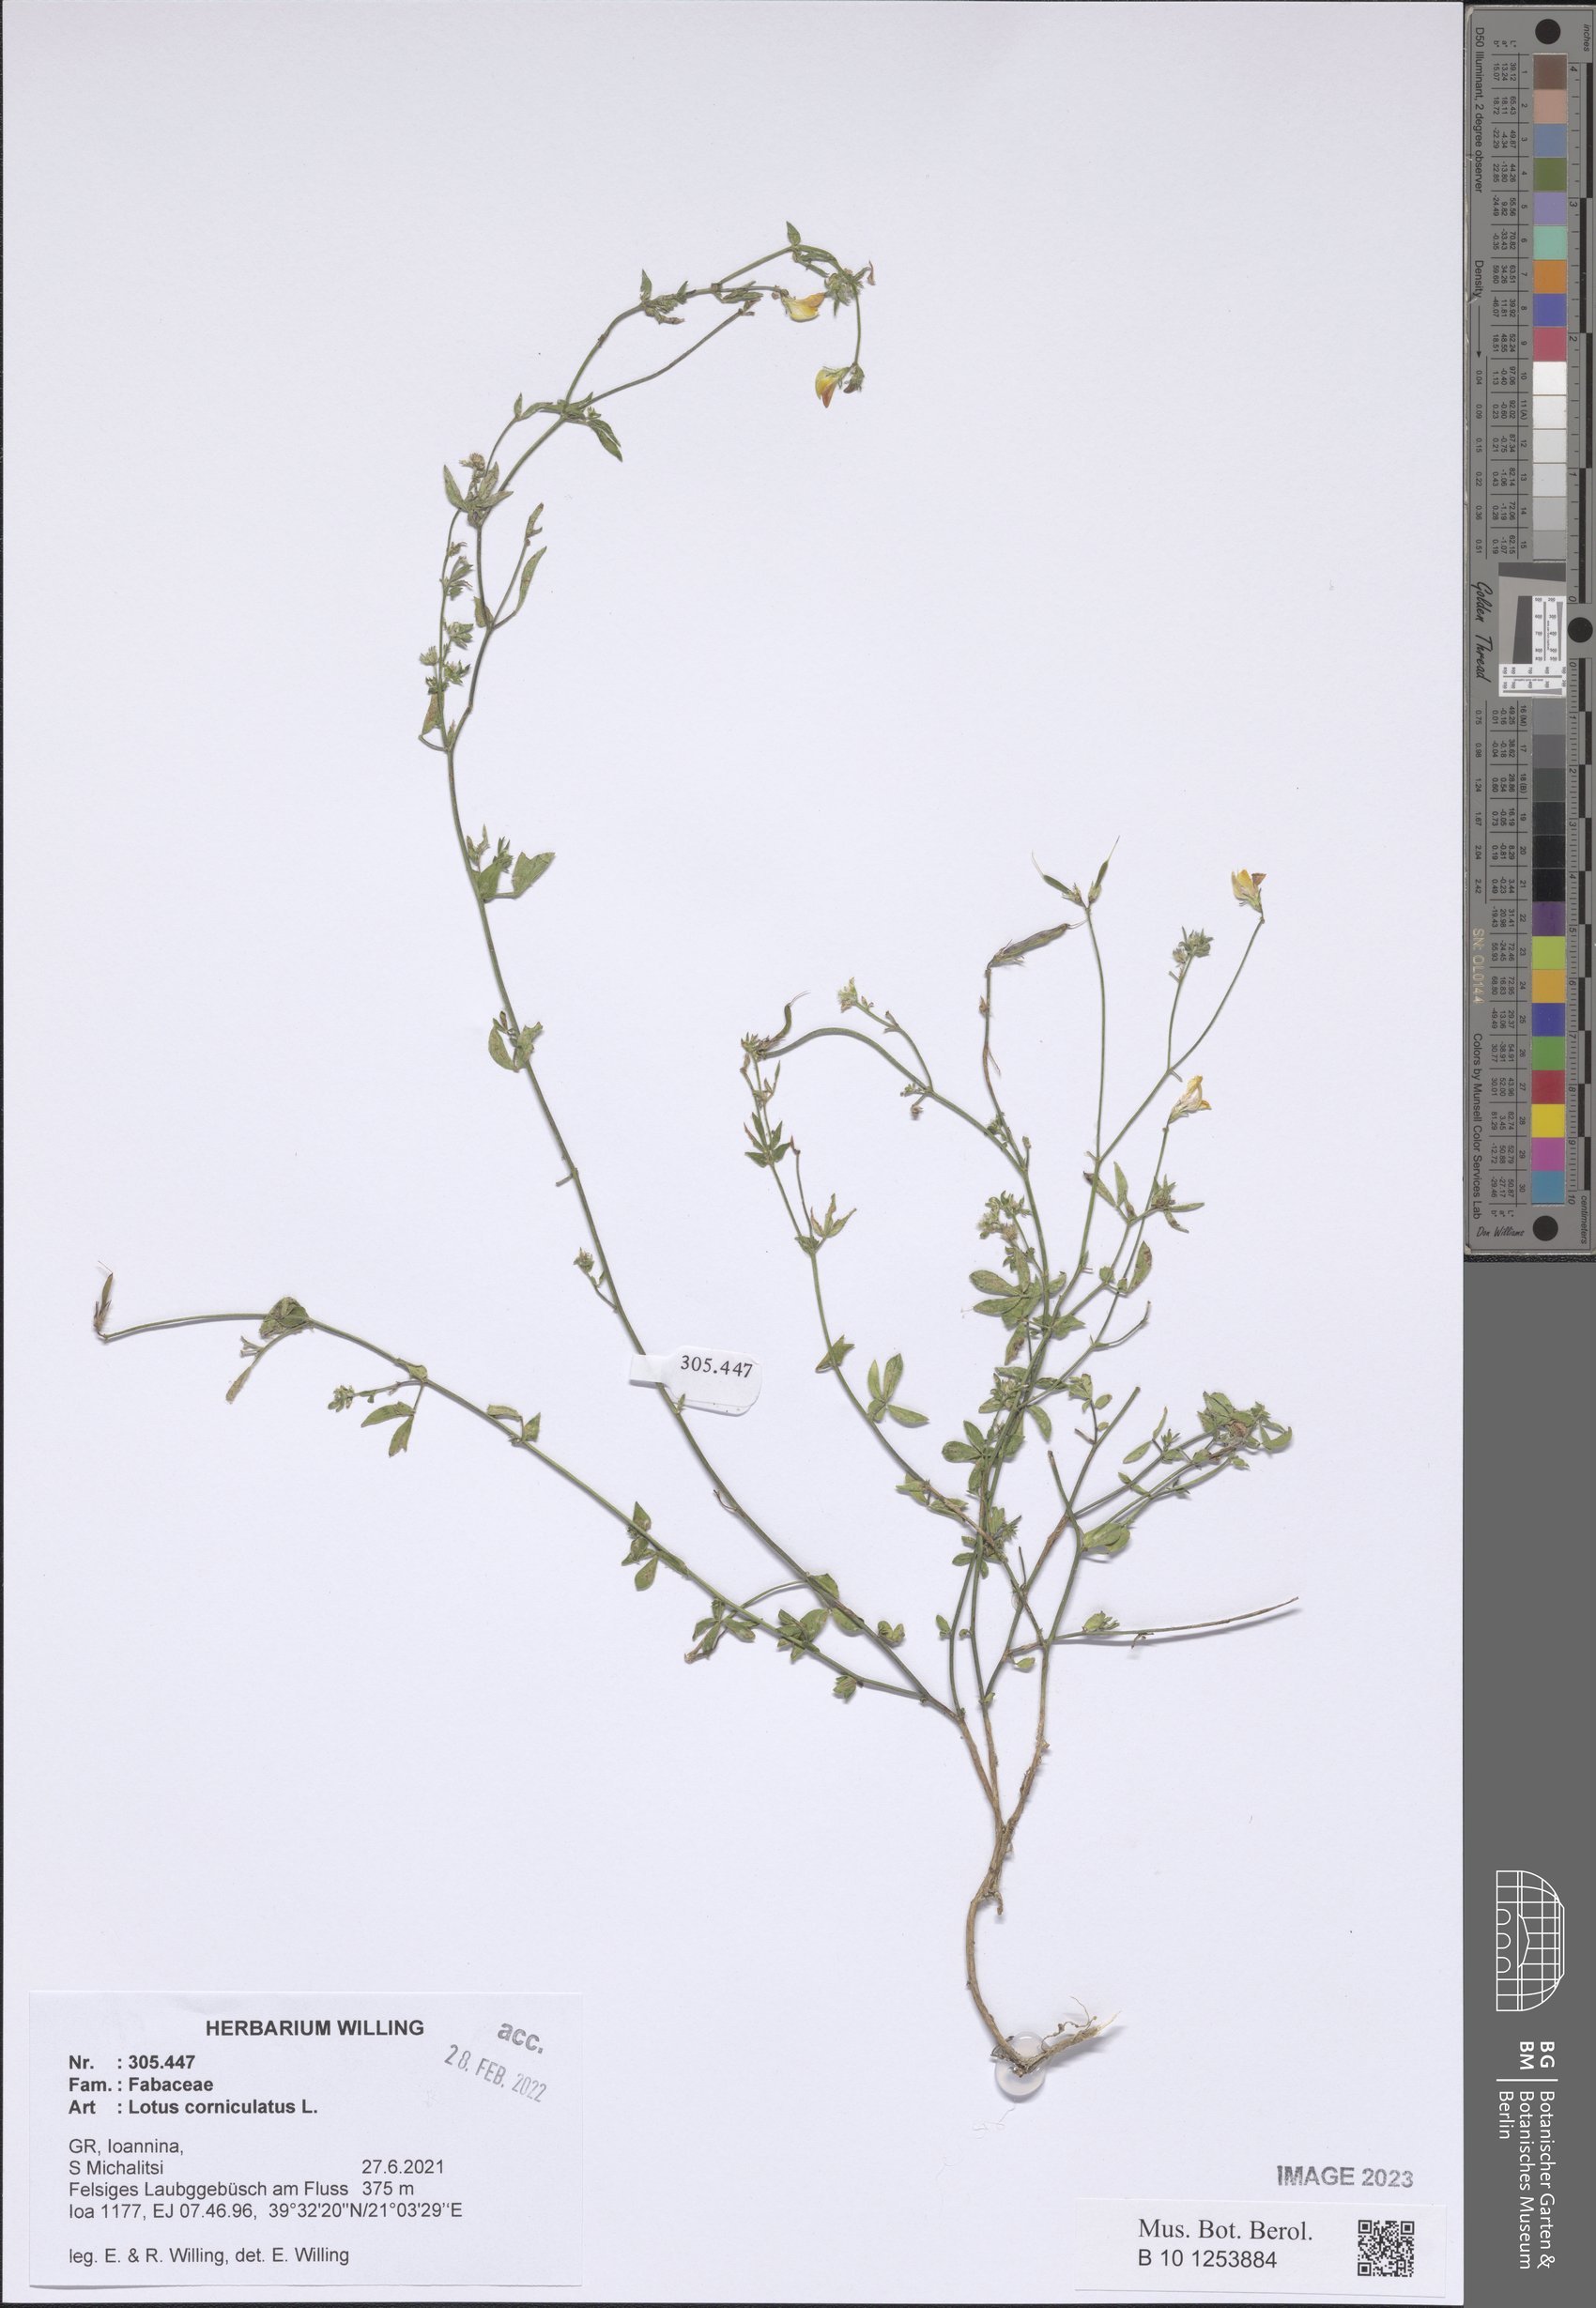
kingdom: Plantae
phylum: Tracheophyta
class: Magnoliopsida
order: Fabales
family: Fabaceae
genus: Lotus
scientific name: Lotus corniculatus
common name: Common bird's-foot-trefoil
